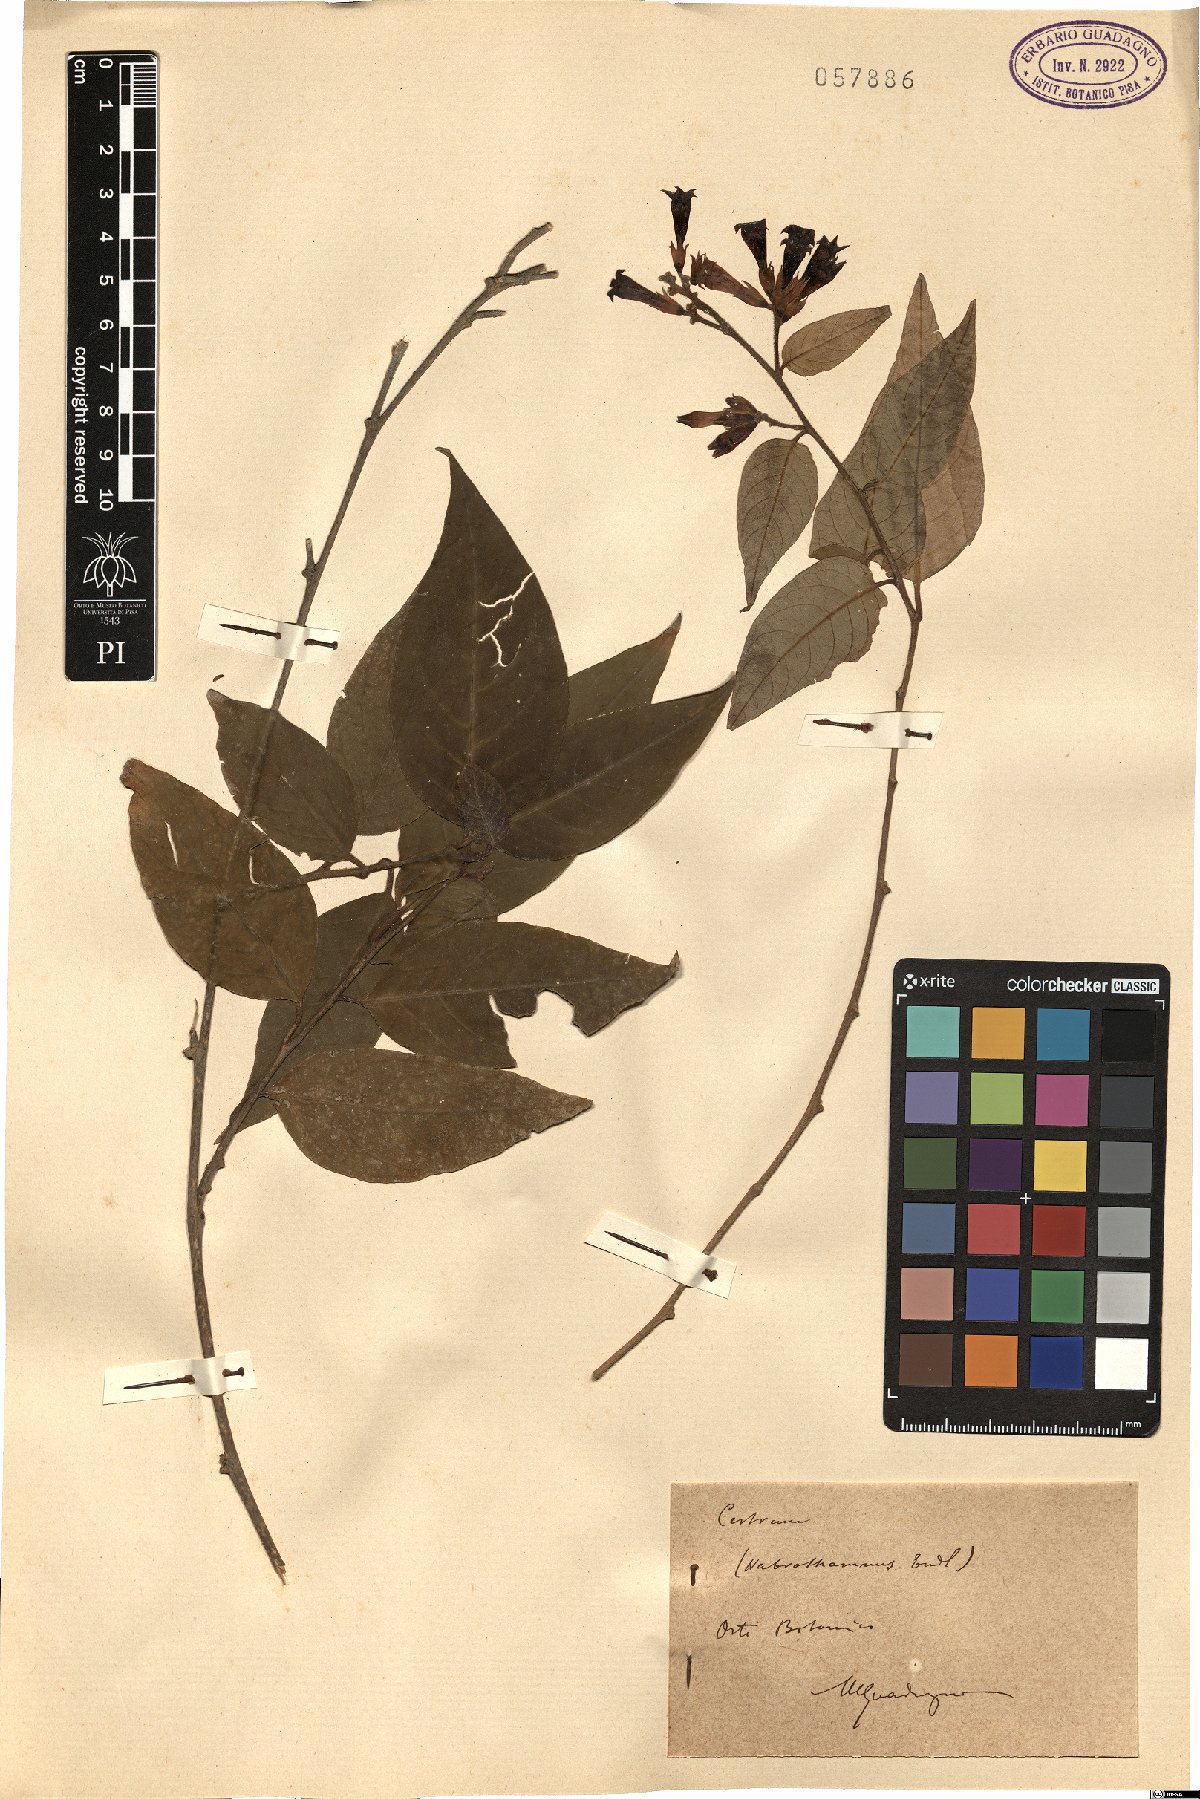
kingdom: Plantae
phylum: Tracheophyta
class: Magnoliopsida
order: Solanales
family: Solanaceae
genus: Cestrum
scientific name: Cestrum
